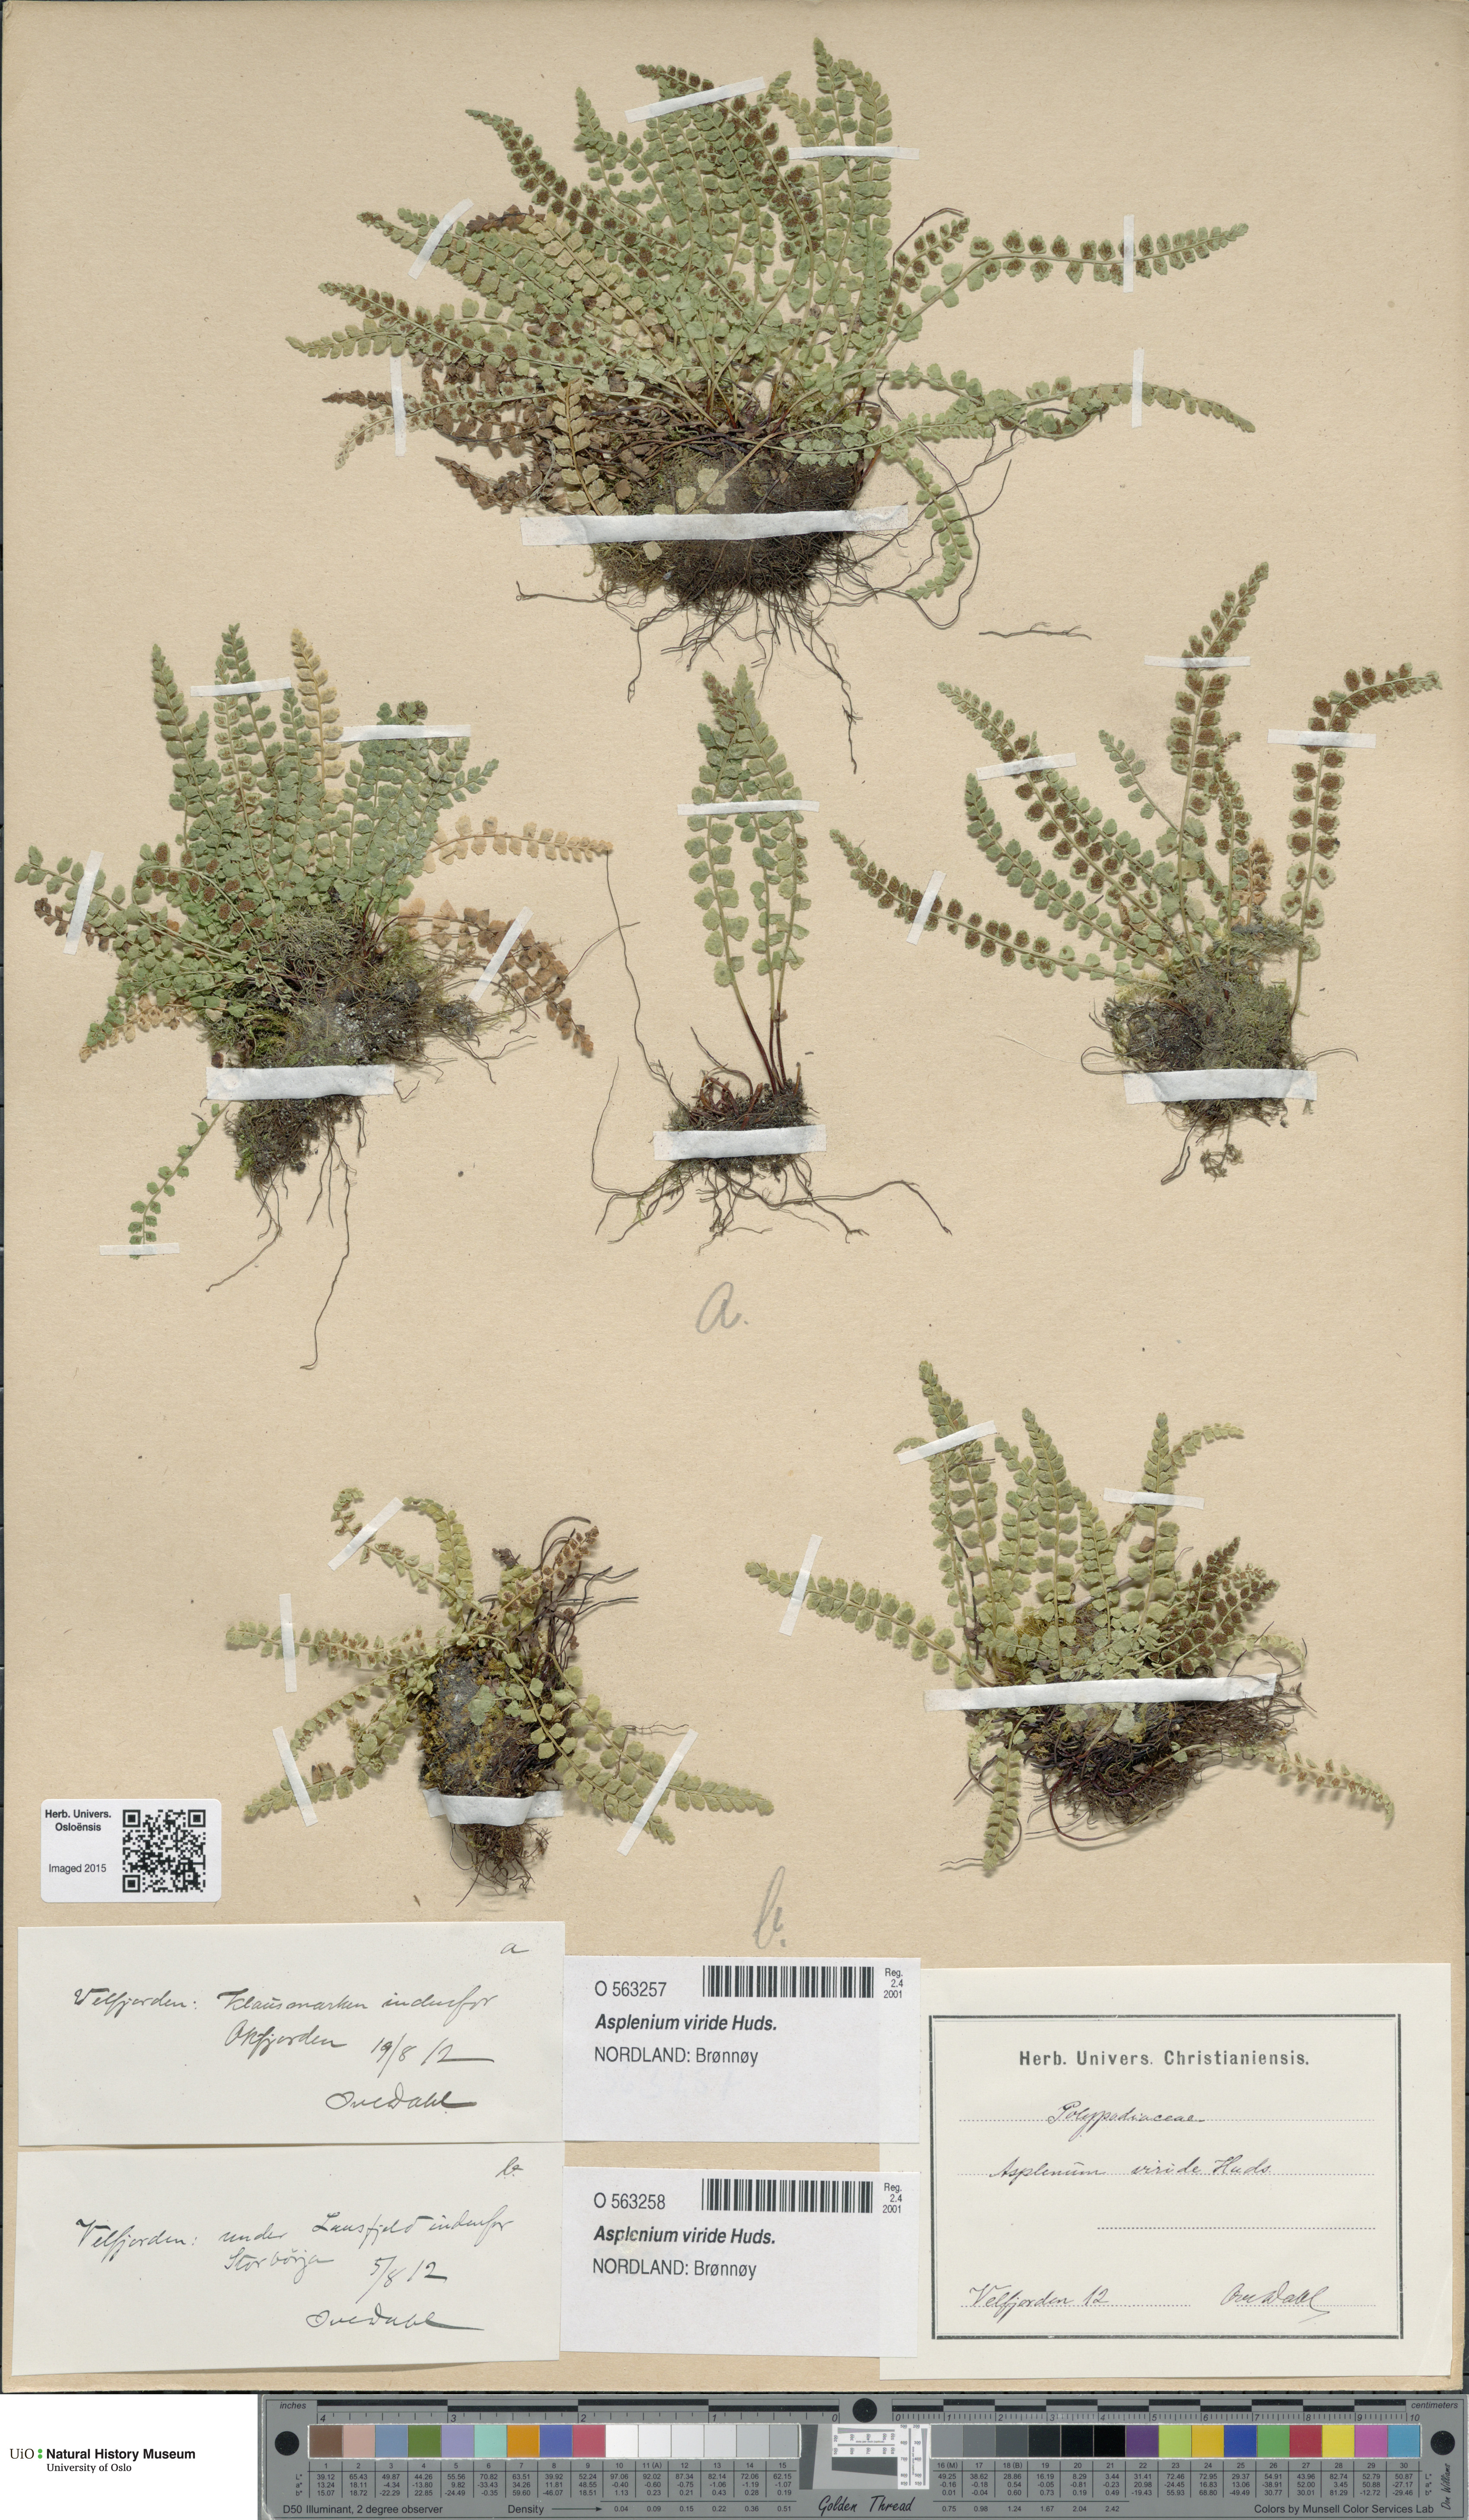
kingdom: Plantae
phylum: Tracheophyta
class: Polypodiopsida
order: Polypodiales
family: Aspleniaceae
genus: Asplenium
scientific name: Asplenium viride
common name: Green spleenwort
